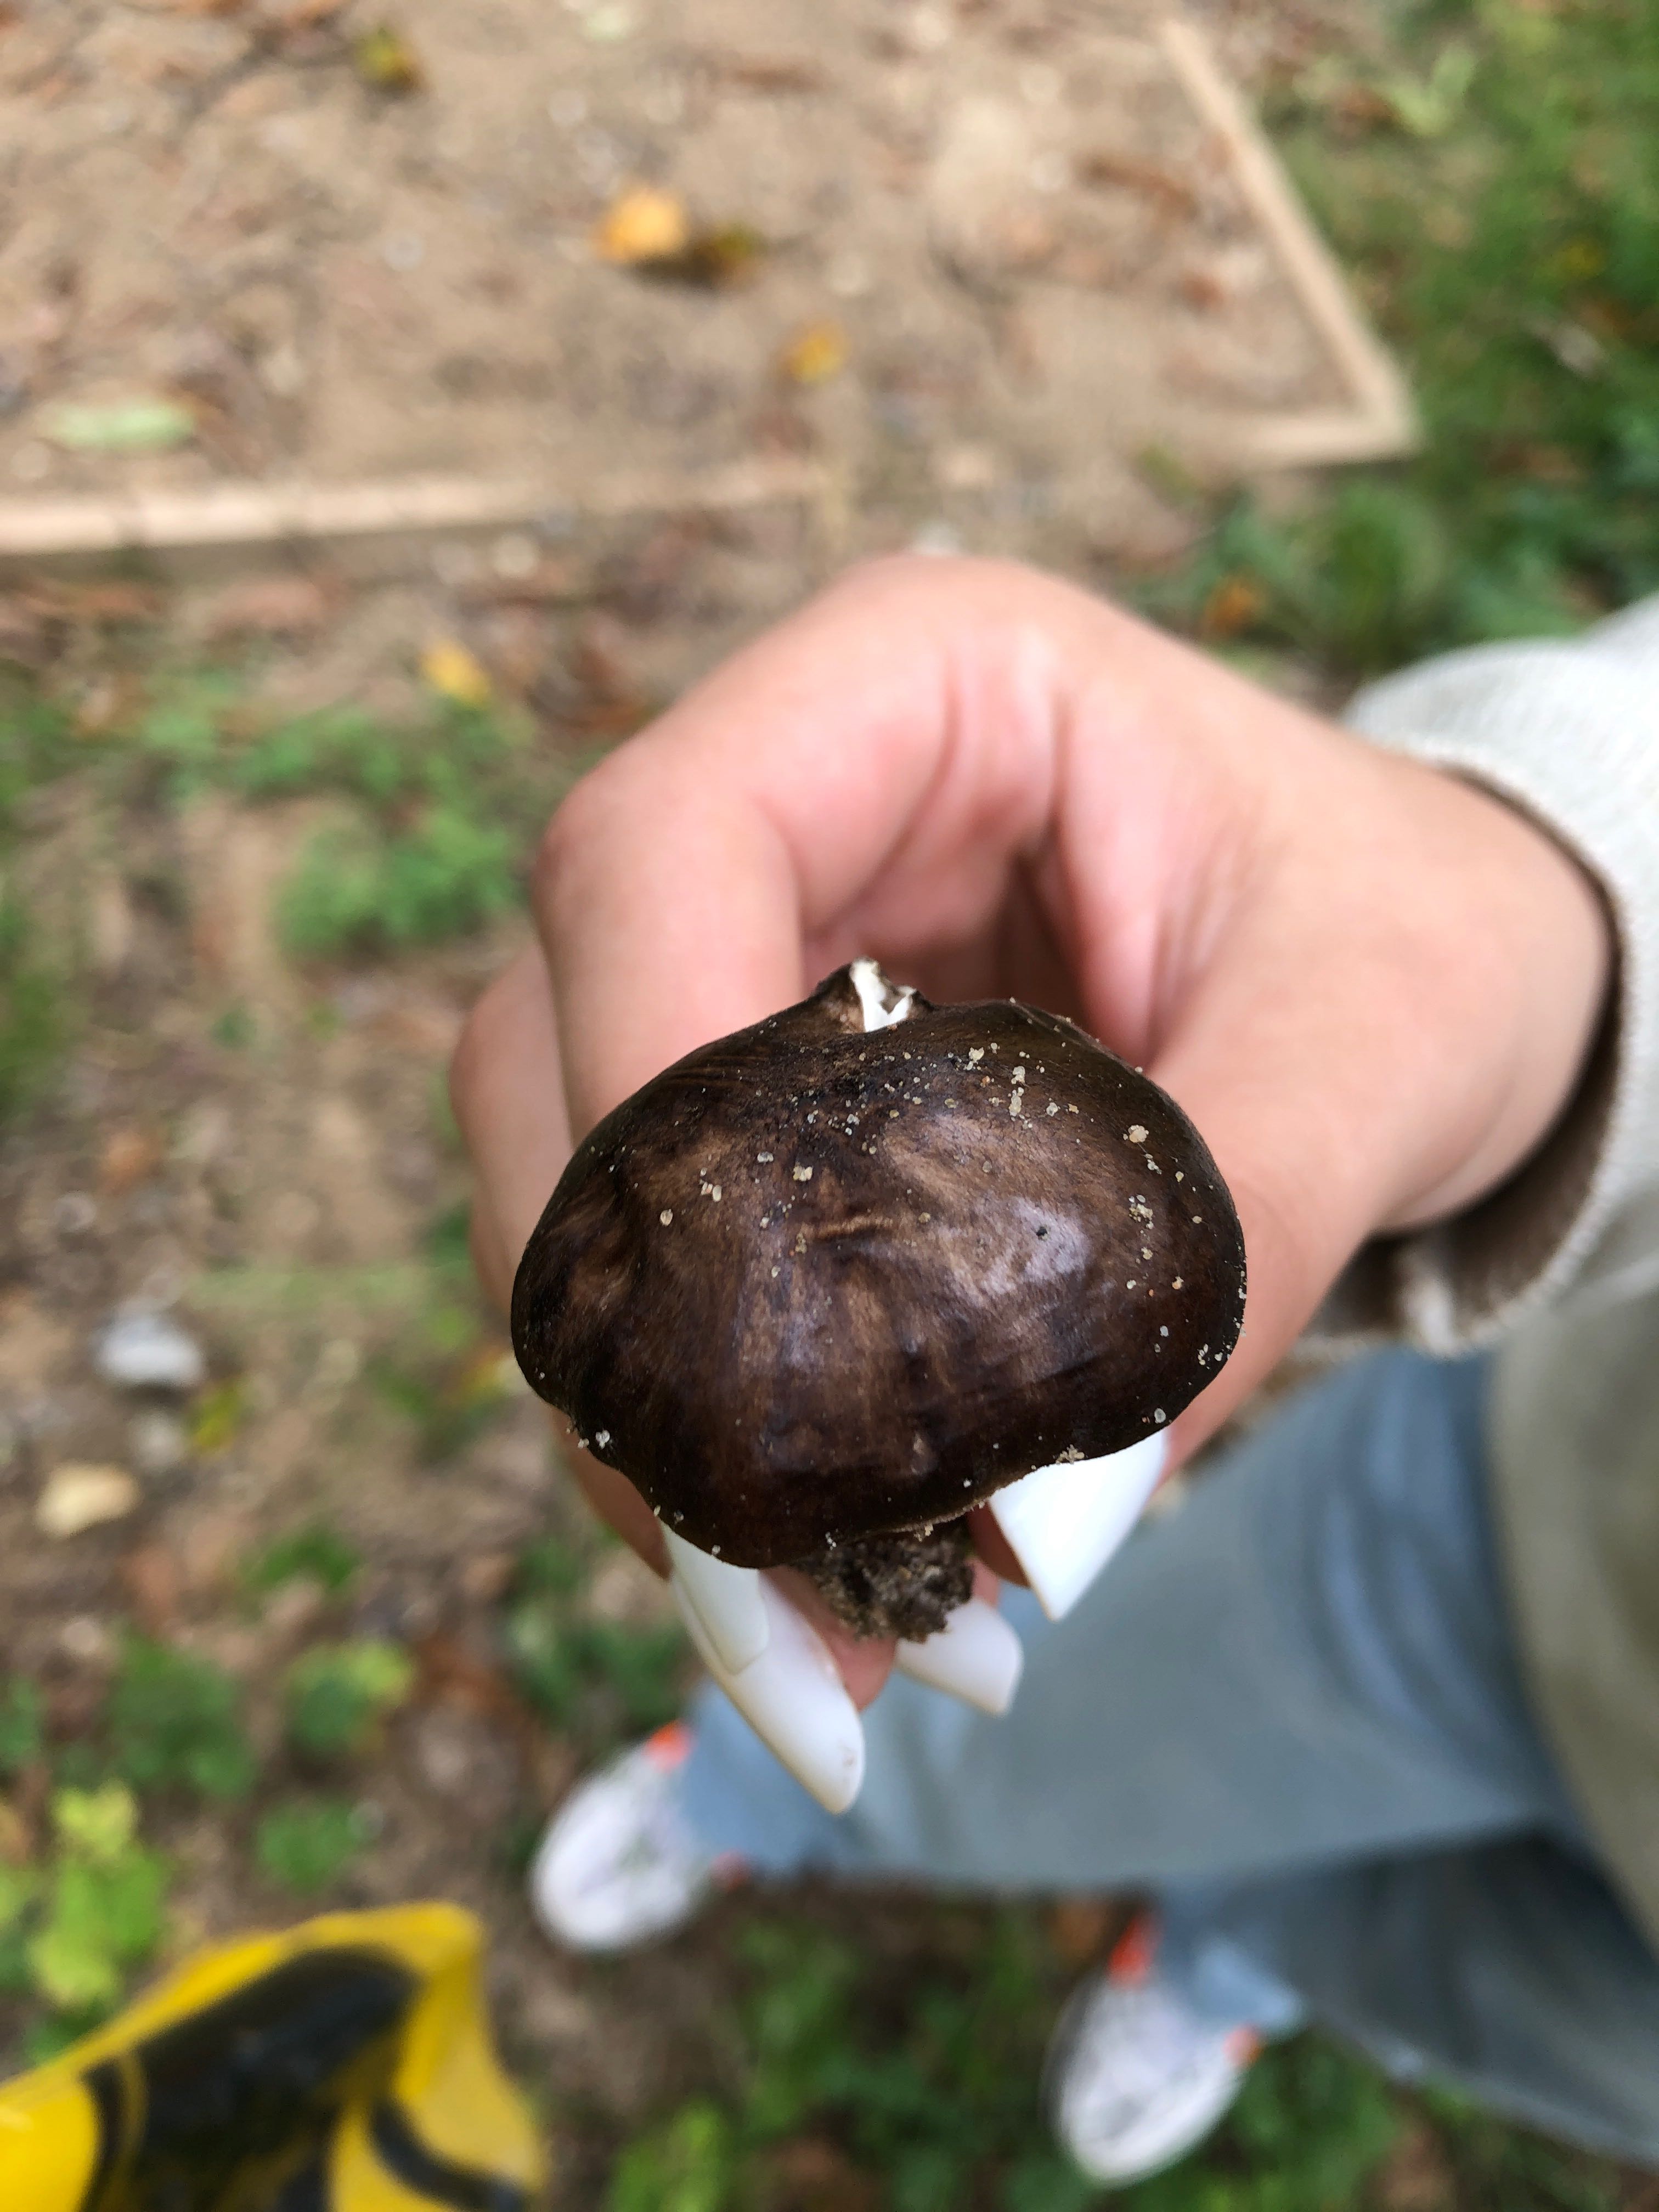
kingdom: Fungi
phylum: Basidiomycota
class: Agaricomycetes
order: Agaricales
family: Pluteaceae
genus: Pluteus
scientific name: Pluteus cervinus
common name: sodfarvet skærmhat
